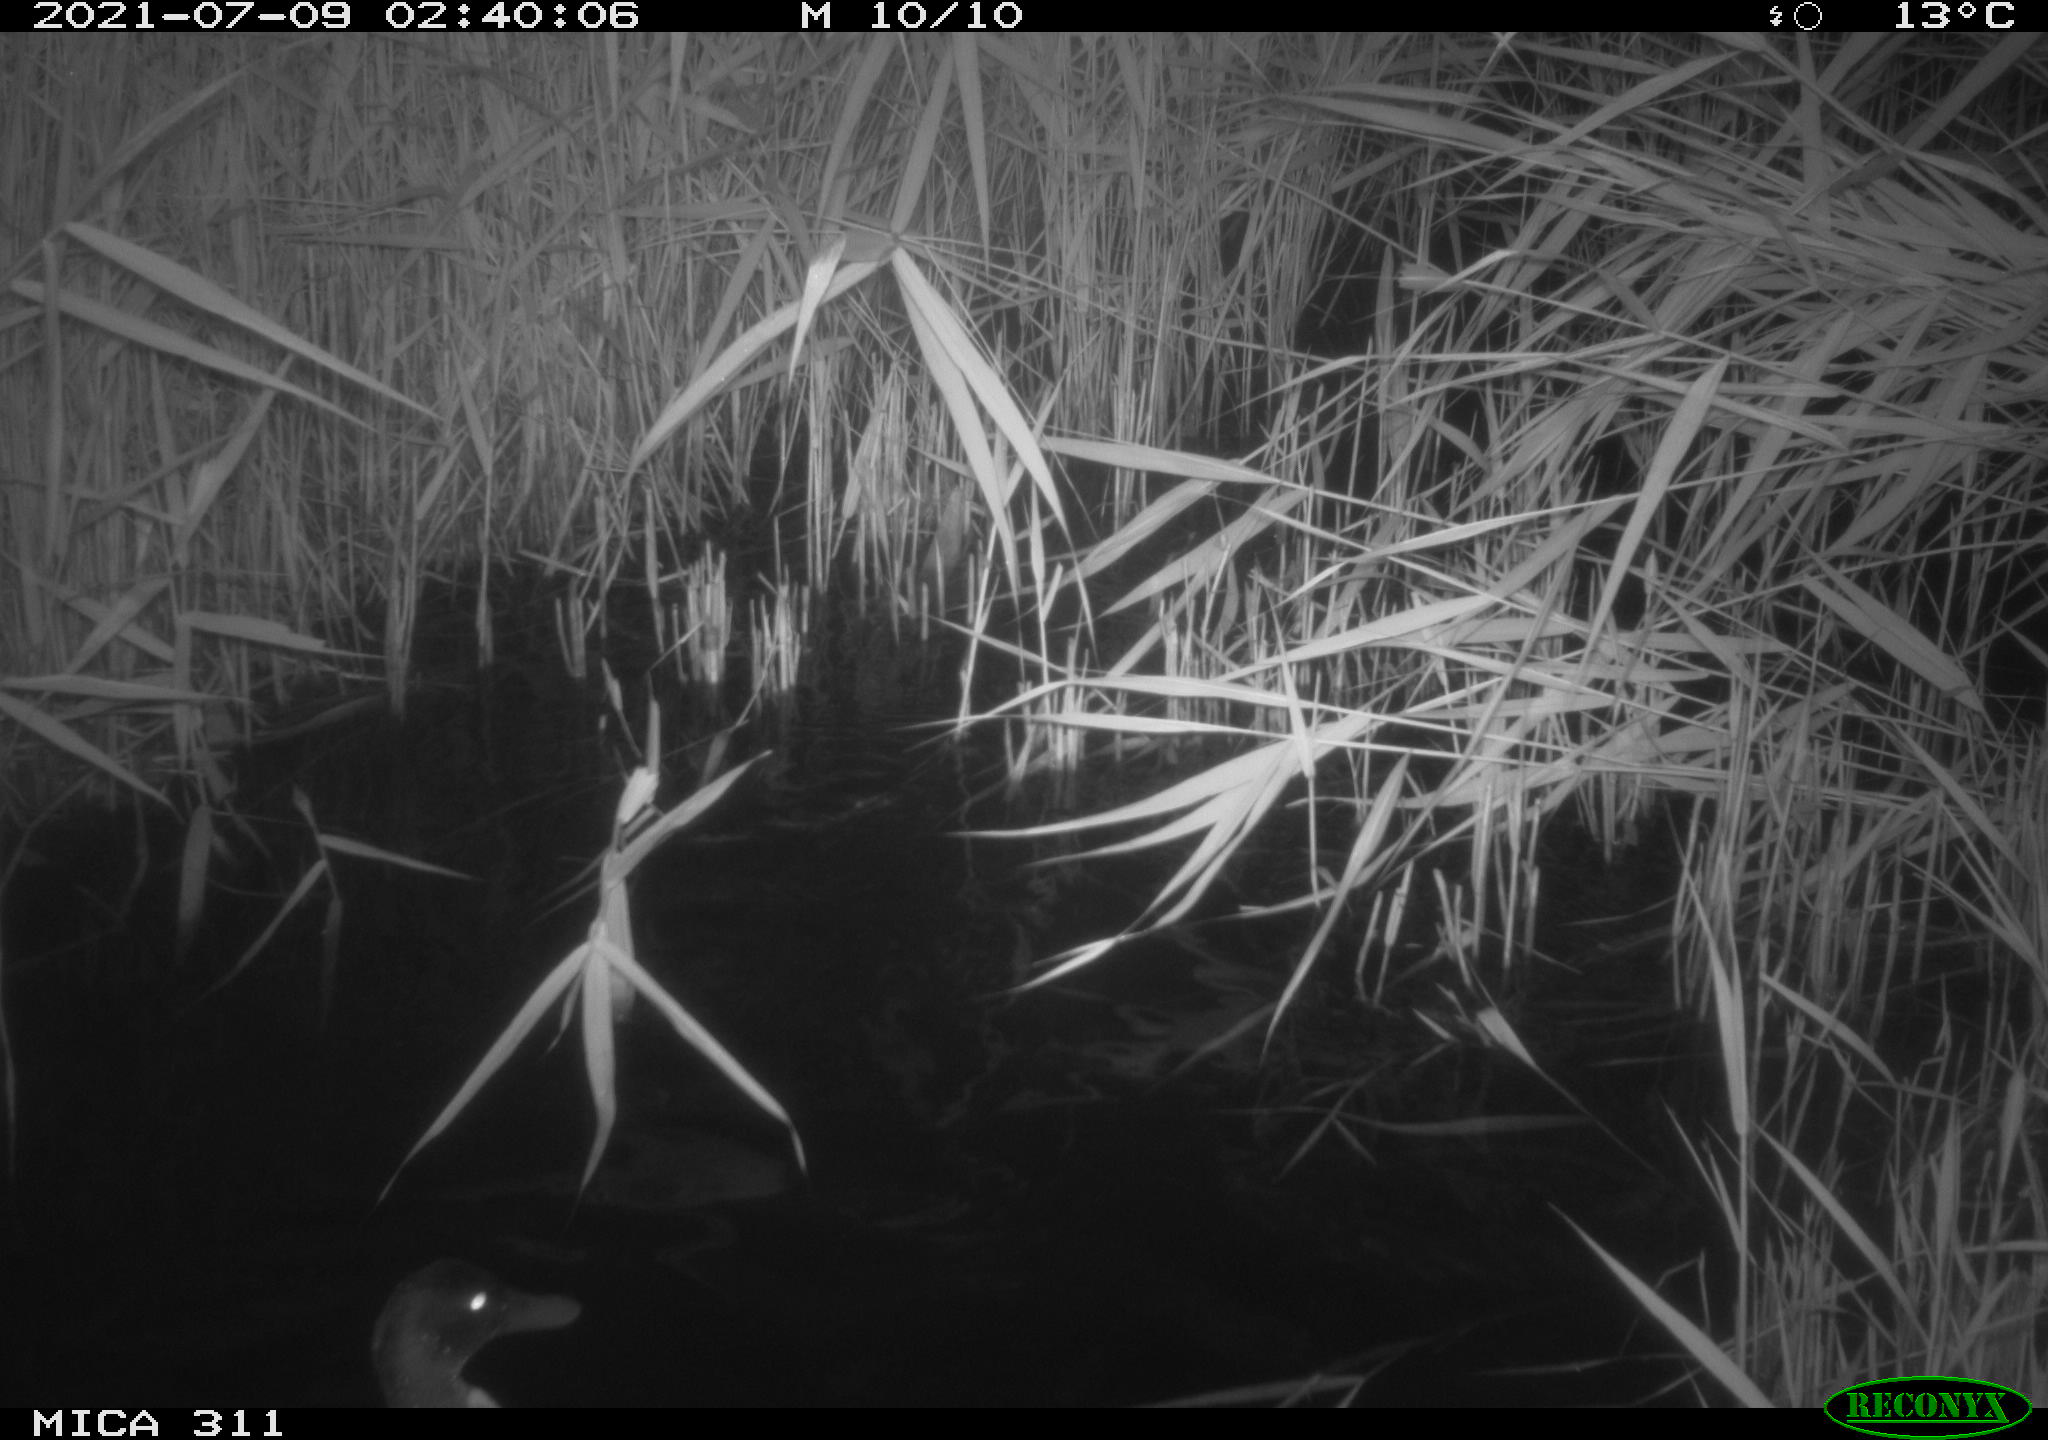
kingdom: Animalia
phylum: Chordata
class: Aves
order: Anseriformes
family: Anatidae
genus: Anas
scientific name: Anas
